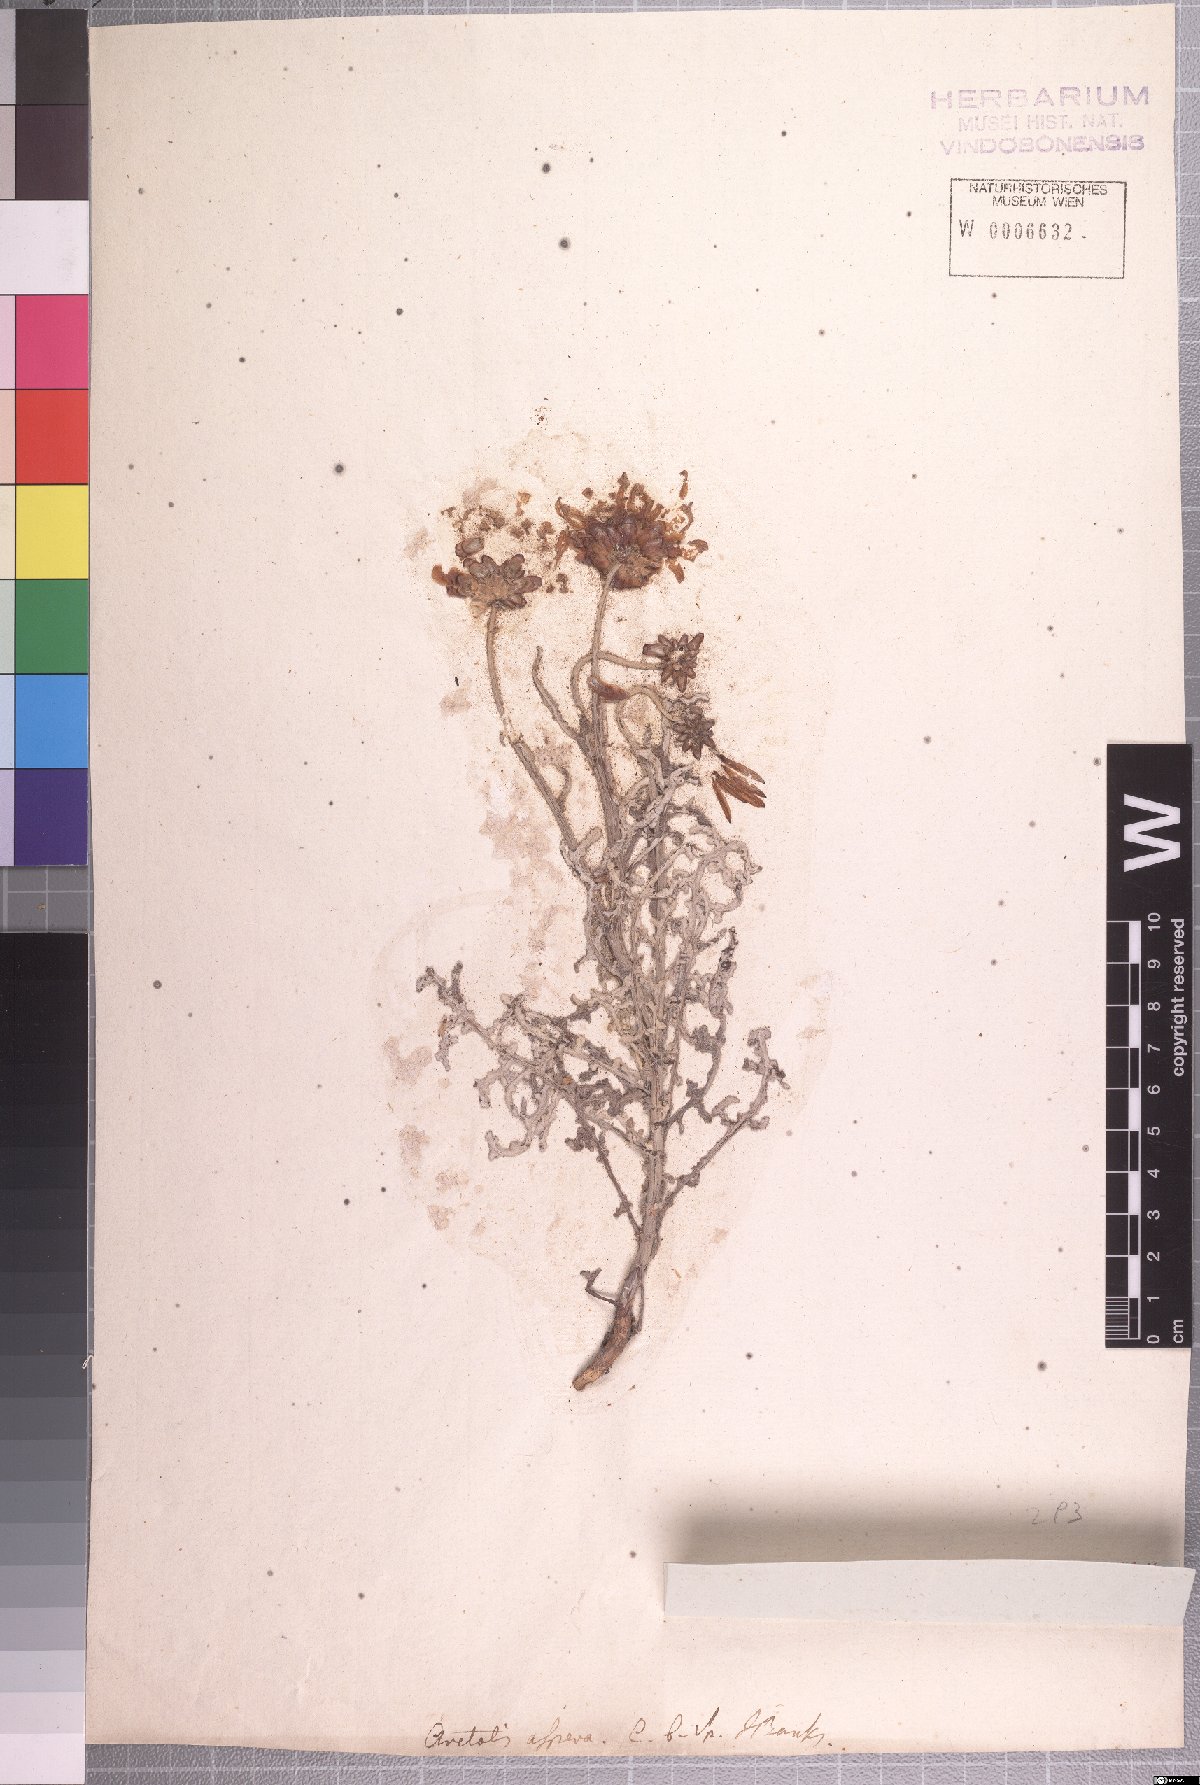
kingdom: Plantae
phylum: Tracheophyta
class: Magnoliopsida
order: Asterales
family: Asteraceae
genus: Arctotis
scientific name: Arctotis laciniata
